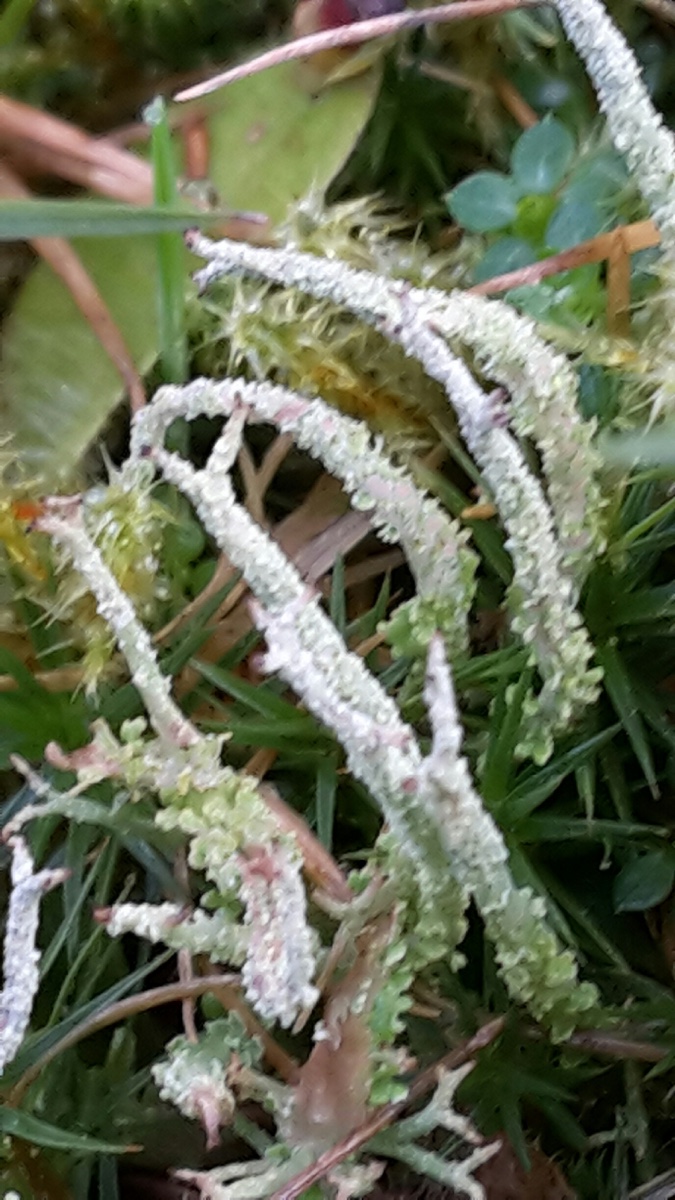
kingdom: Fungi
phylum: Ascomycota
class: Lecanoromycetes
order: Lecanorales
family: Cladoniaceae
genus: Cladonia
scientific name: Cladonia scabriuscula
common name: ru bægerlav
